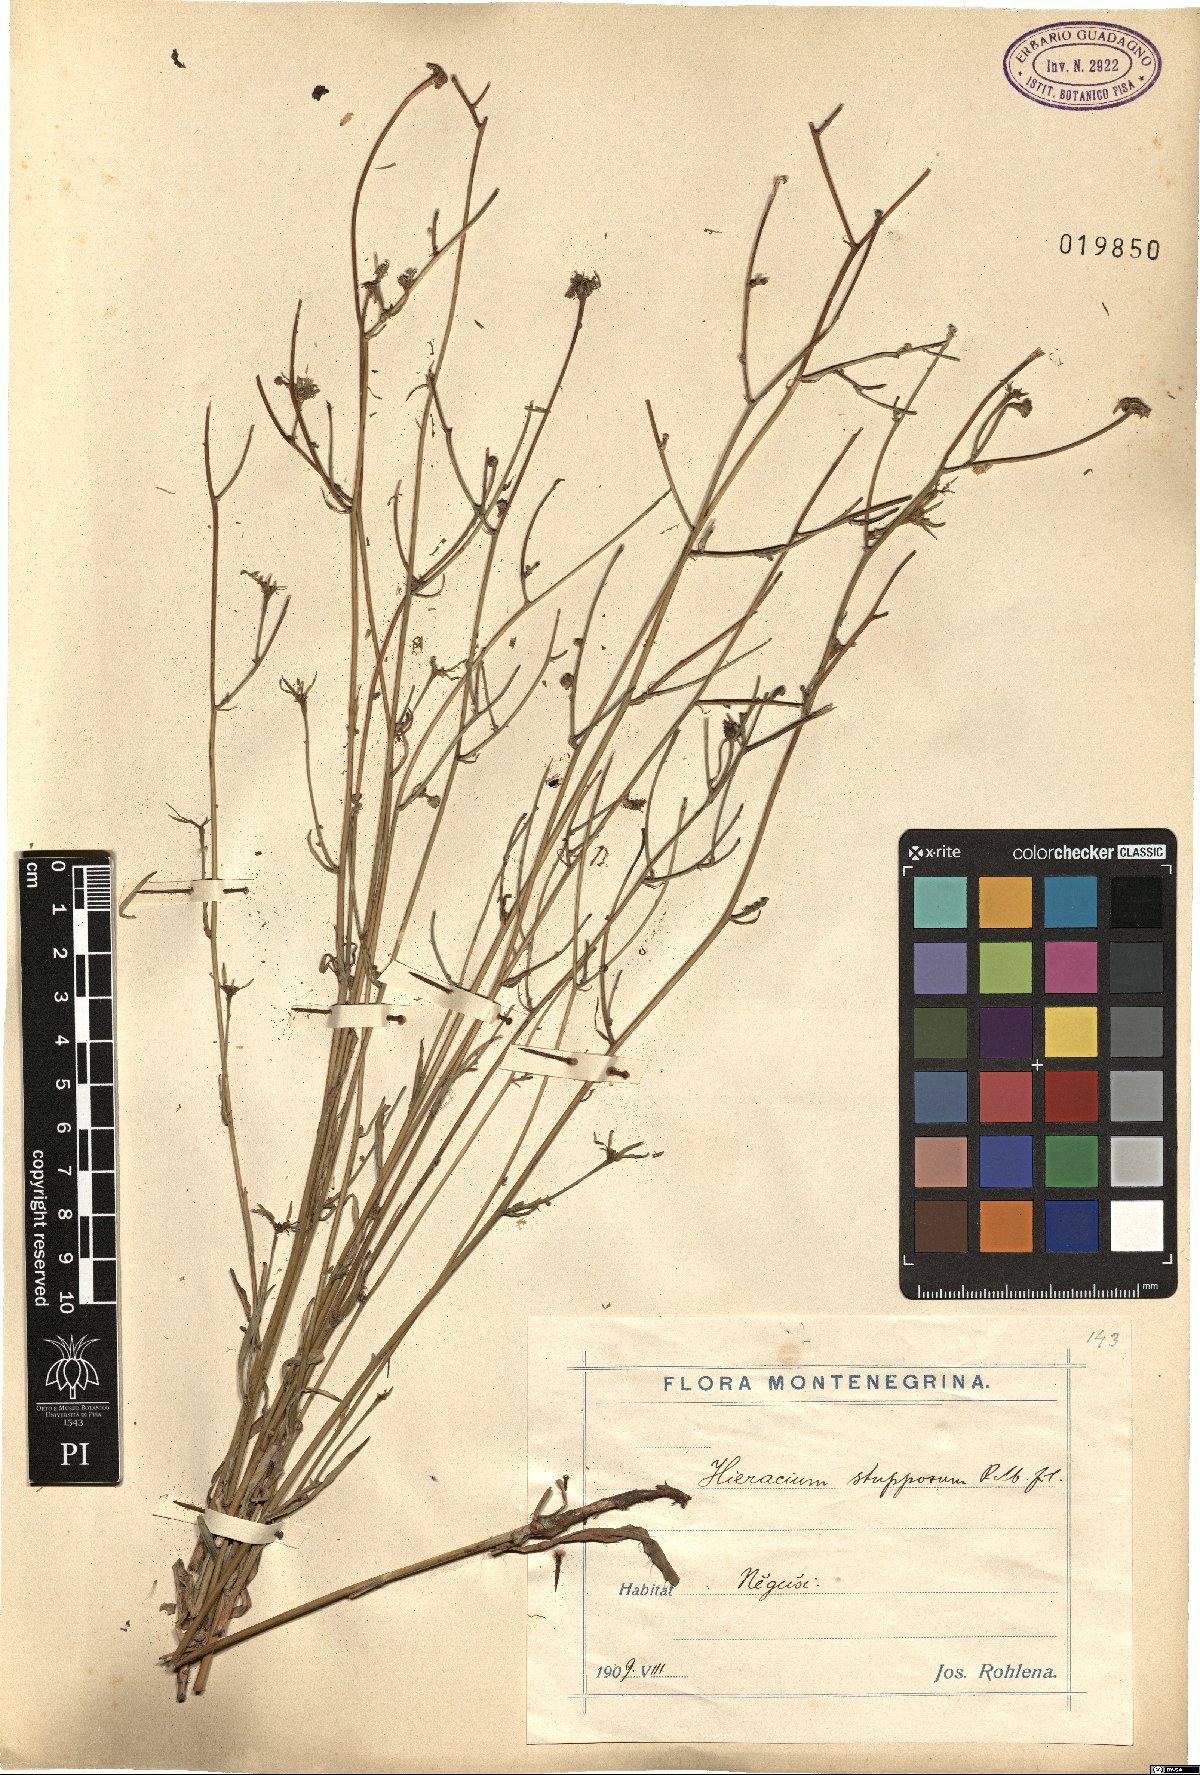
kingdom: Plantae
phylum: Tracheophyta
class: Magnoliopsida
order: Asterales
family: Asteraceae
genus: Hieracium
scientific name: Hieracium heterogynum
